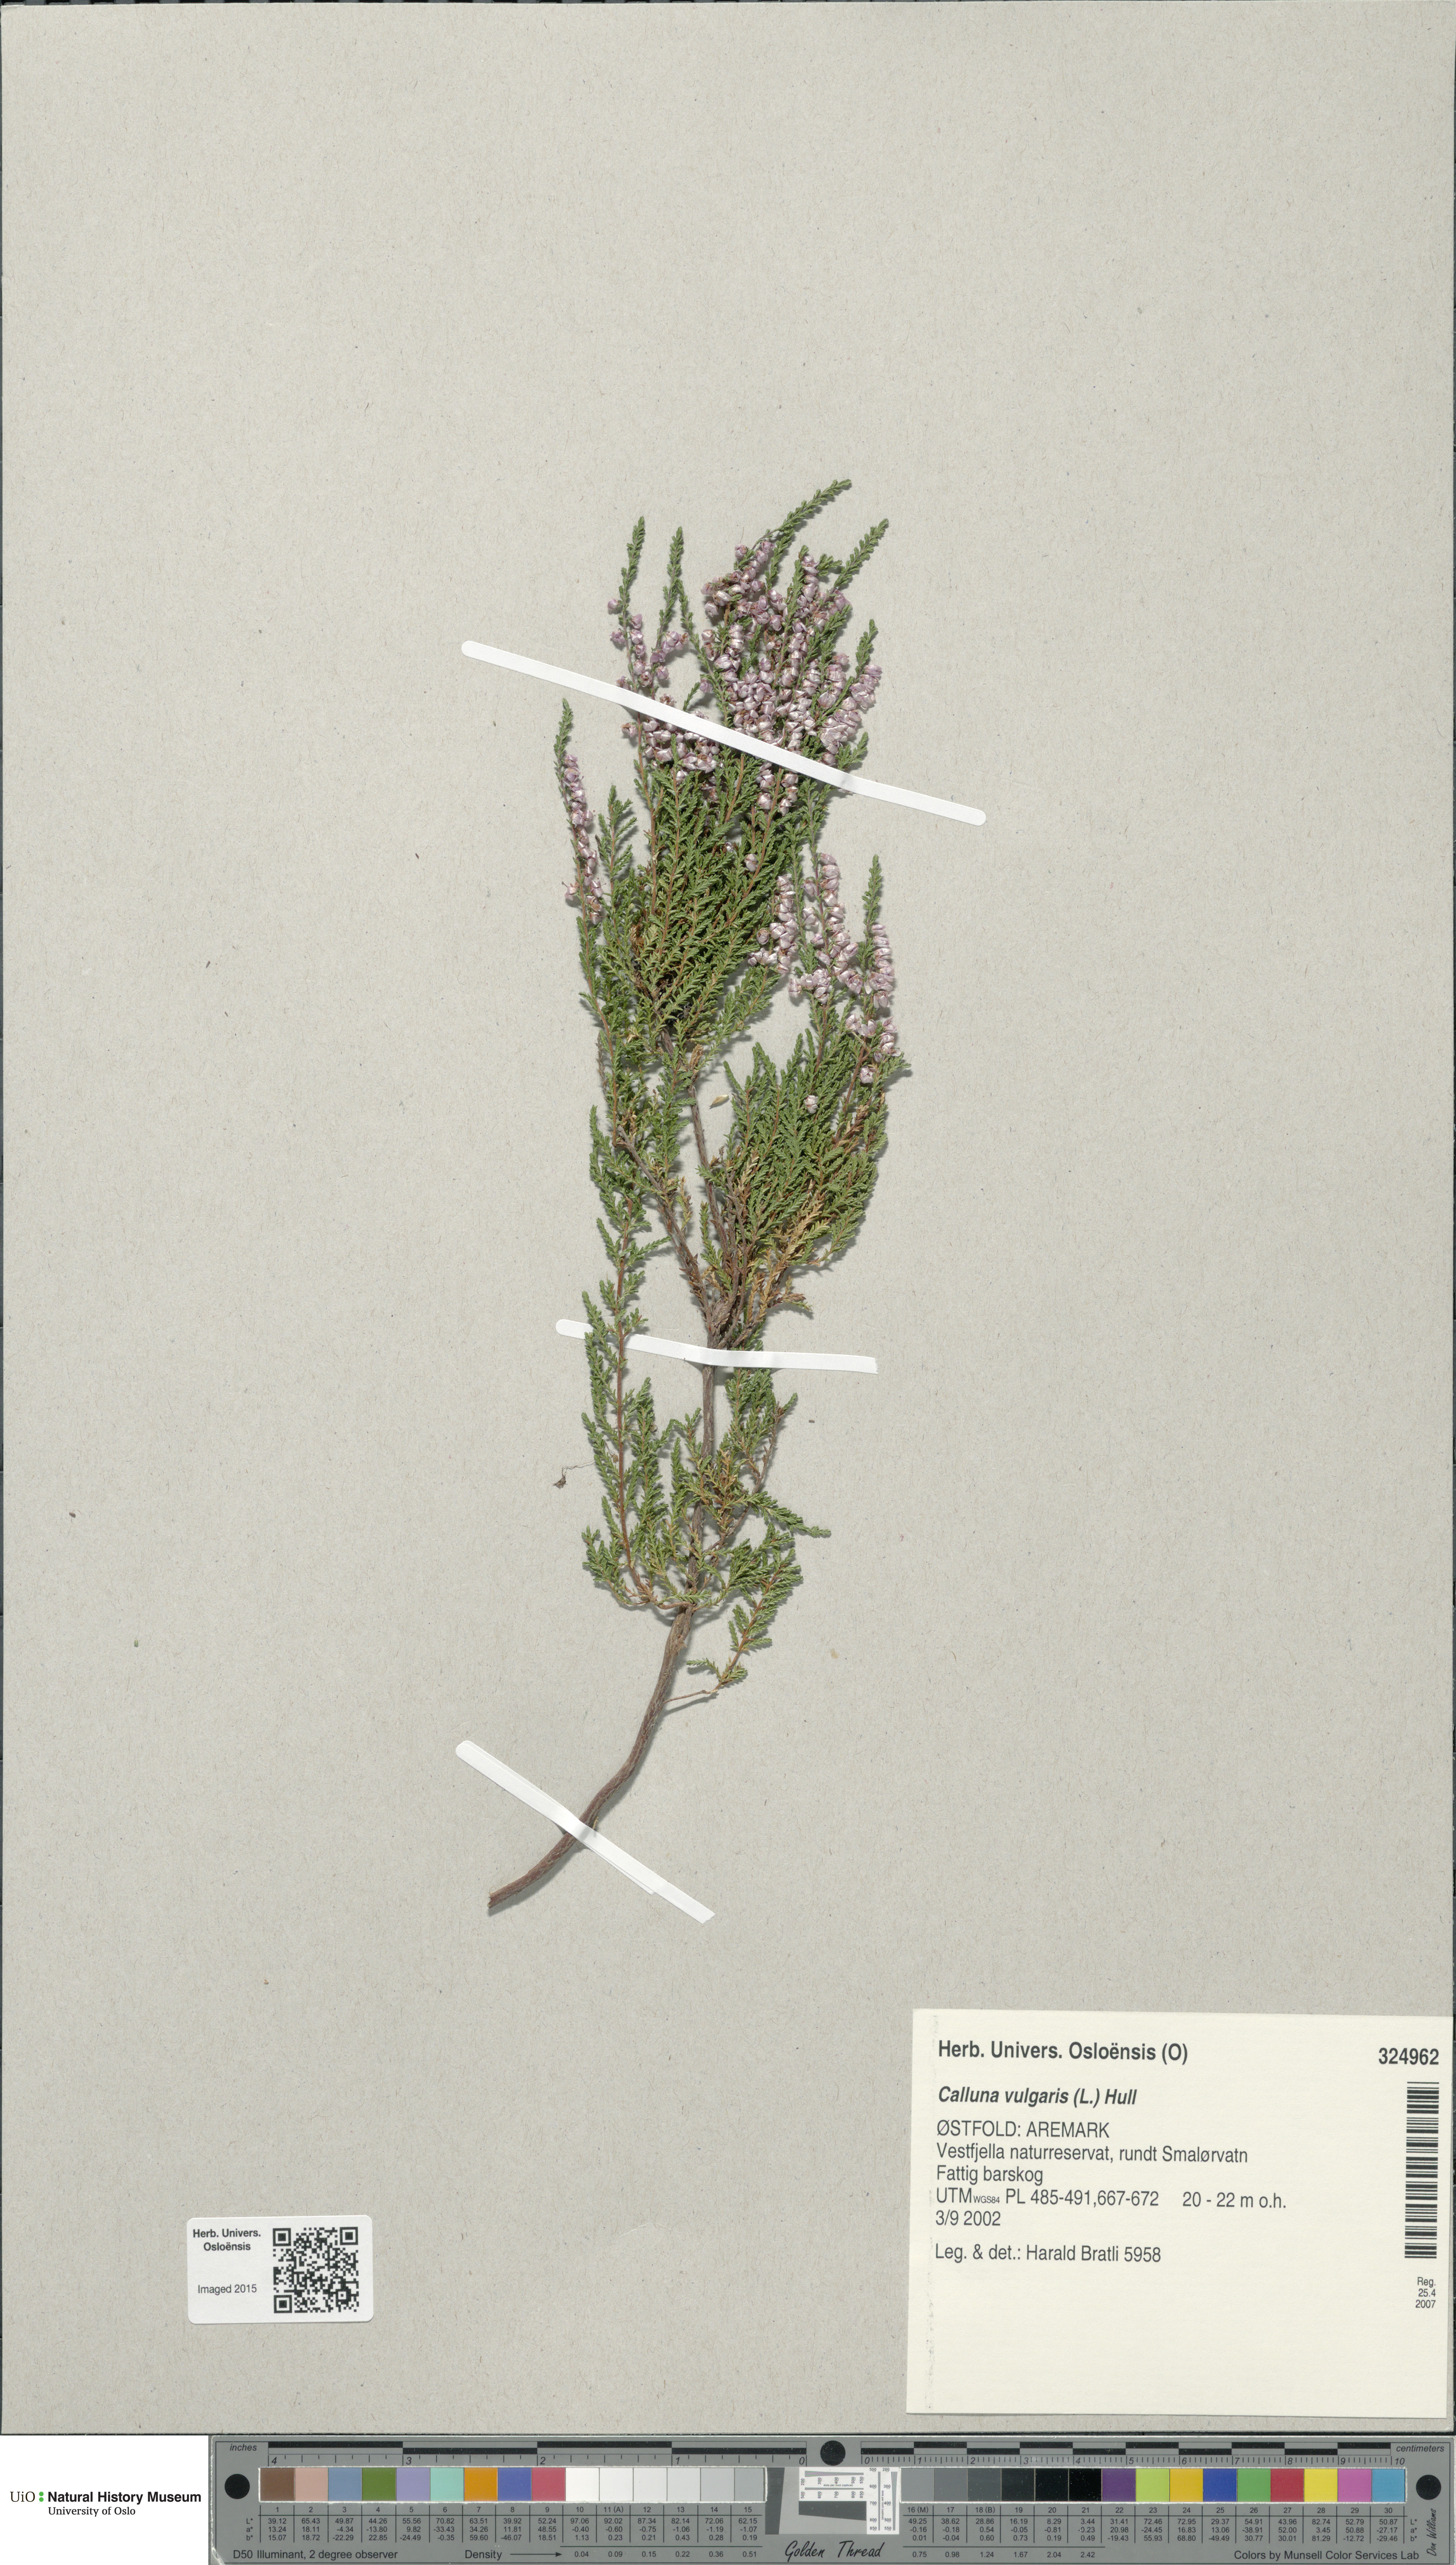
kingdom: Plantae
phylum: Tracheophyta
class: Magnoliopsida
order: Ericales
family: Ericaceae
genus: Calluna
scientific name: Calluna vulgaris
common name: Heather
